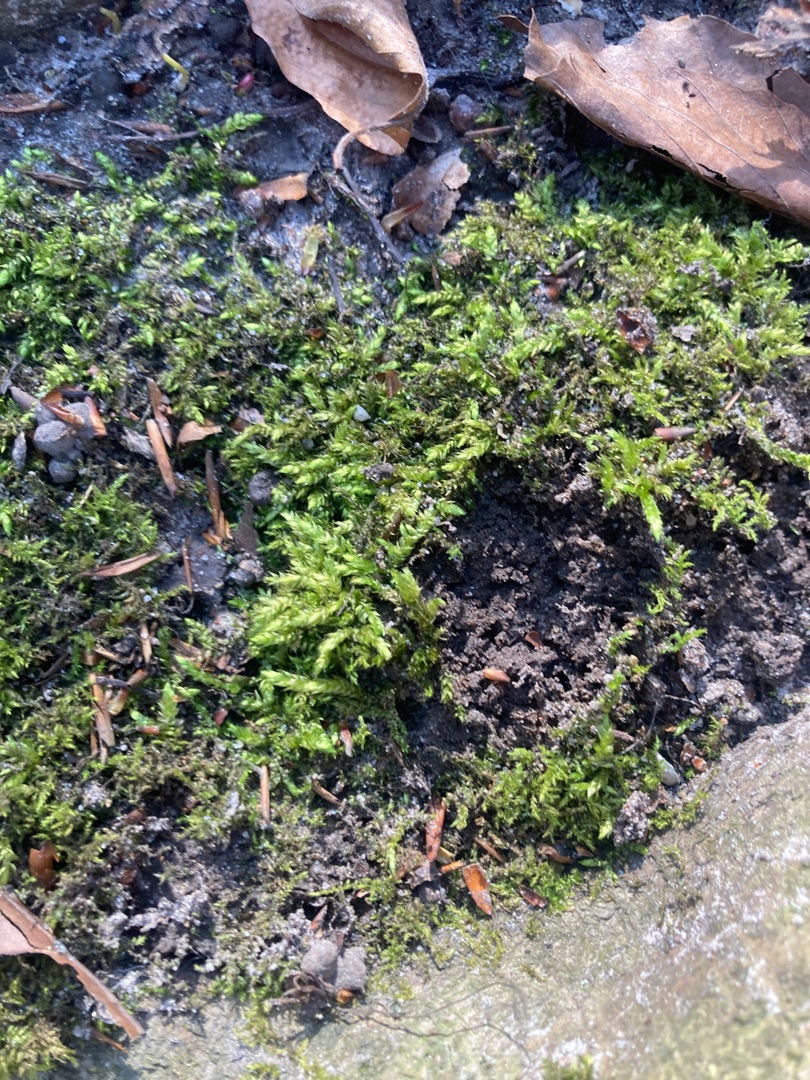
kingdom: Plantae
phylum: Bryophyta
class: Bryopsida
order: Hypnales
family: Brachytheciaceae
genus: Brachythecium
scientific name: Brachythecium rutabulum
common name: Almindelig kortkapsel
